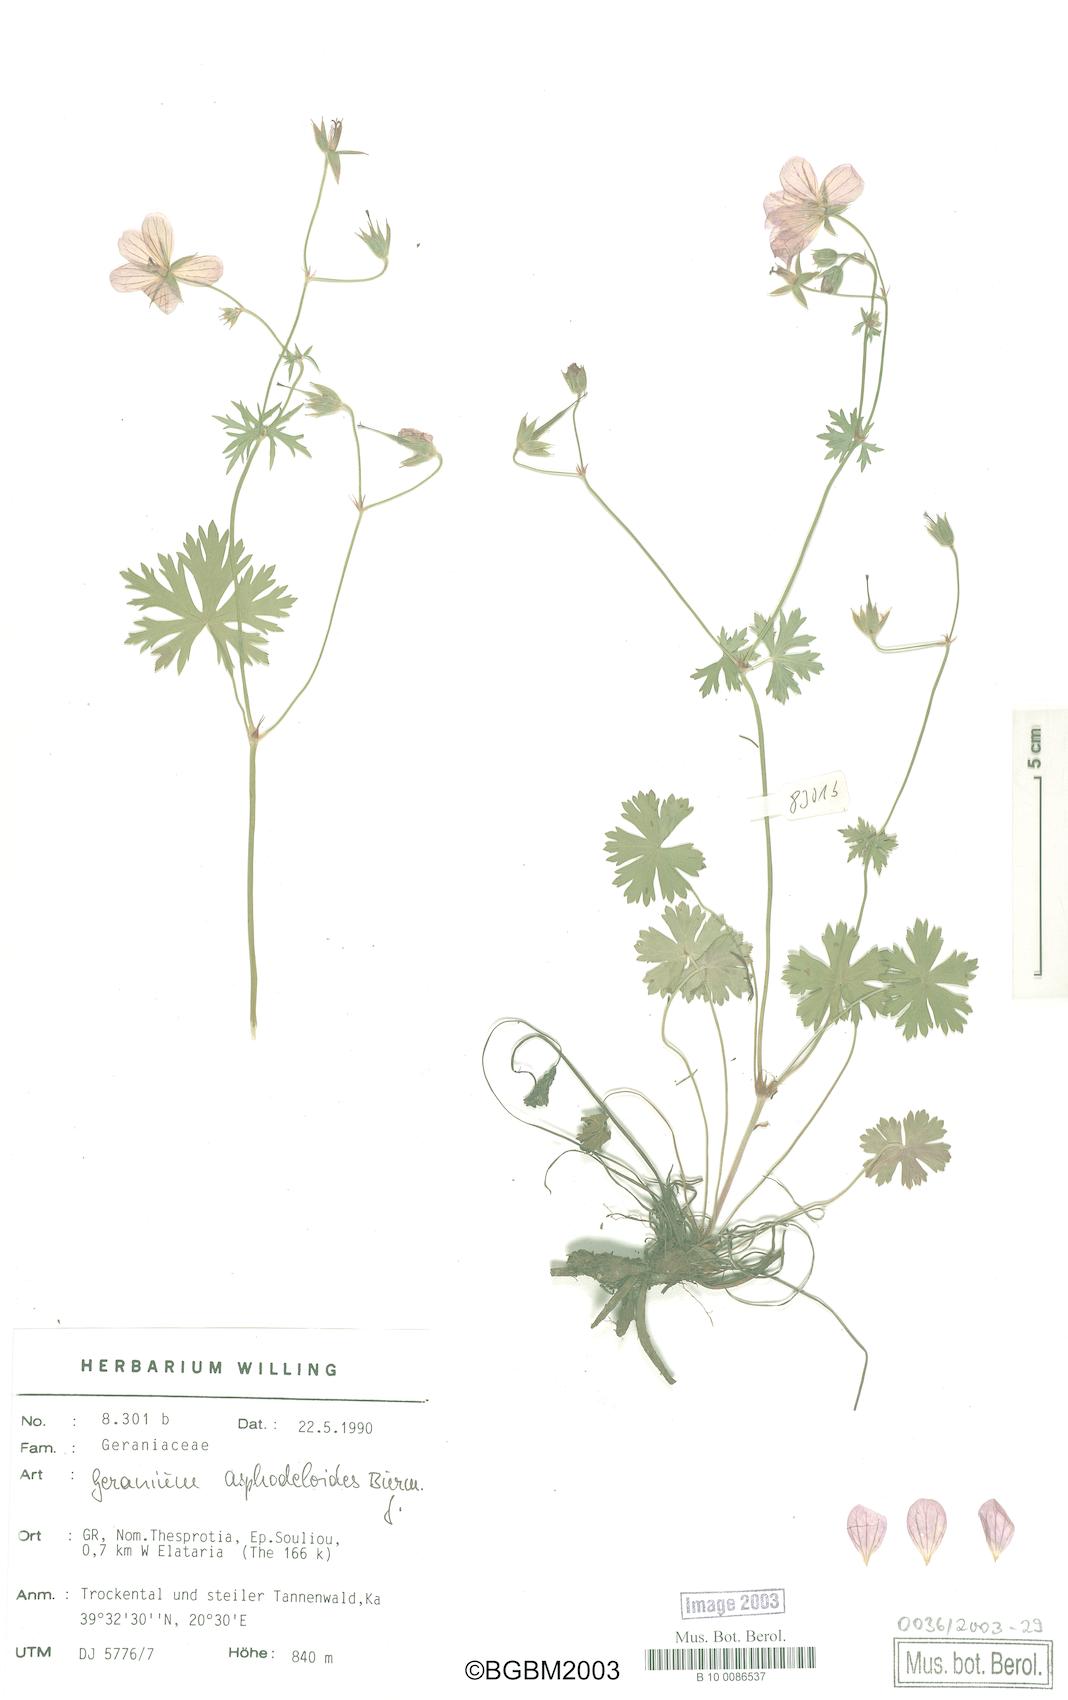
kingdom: Plantae
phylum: Tracheophyta
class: Magnoliopsida
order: Geraniales
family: Geraniaceae
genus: Geranium
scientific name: Geranium asphodeloides
